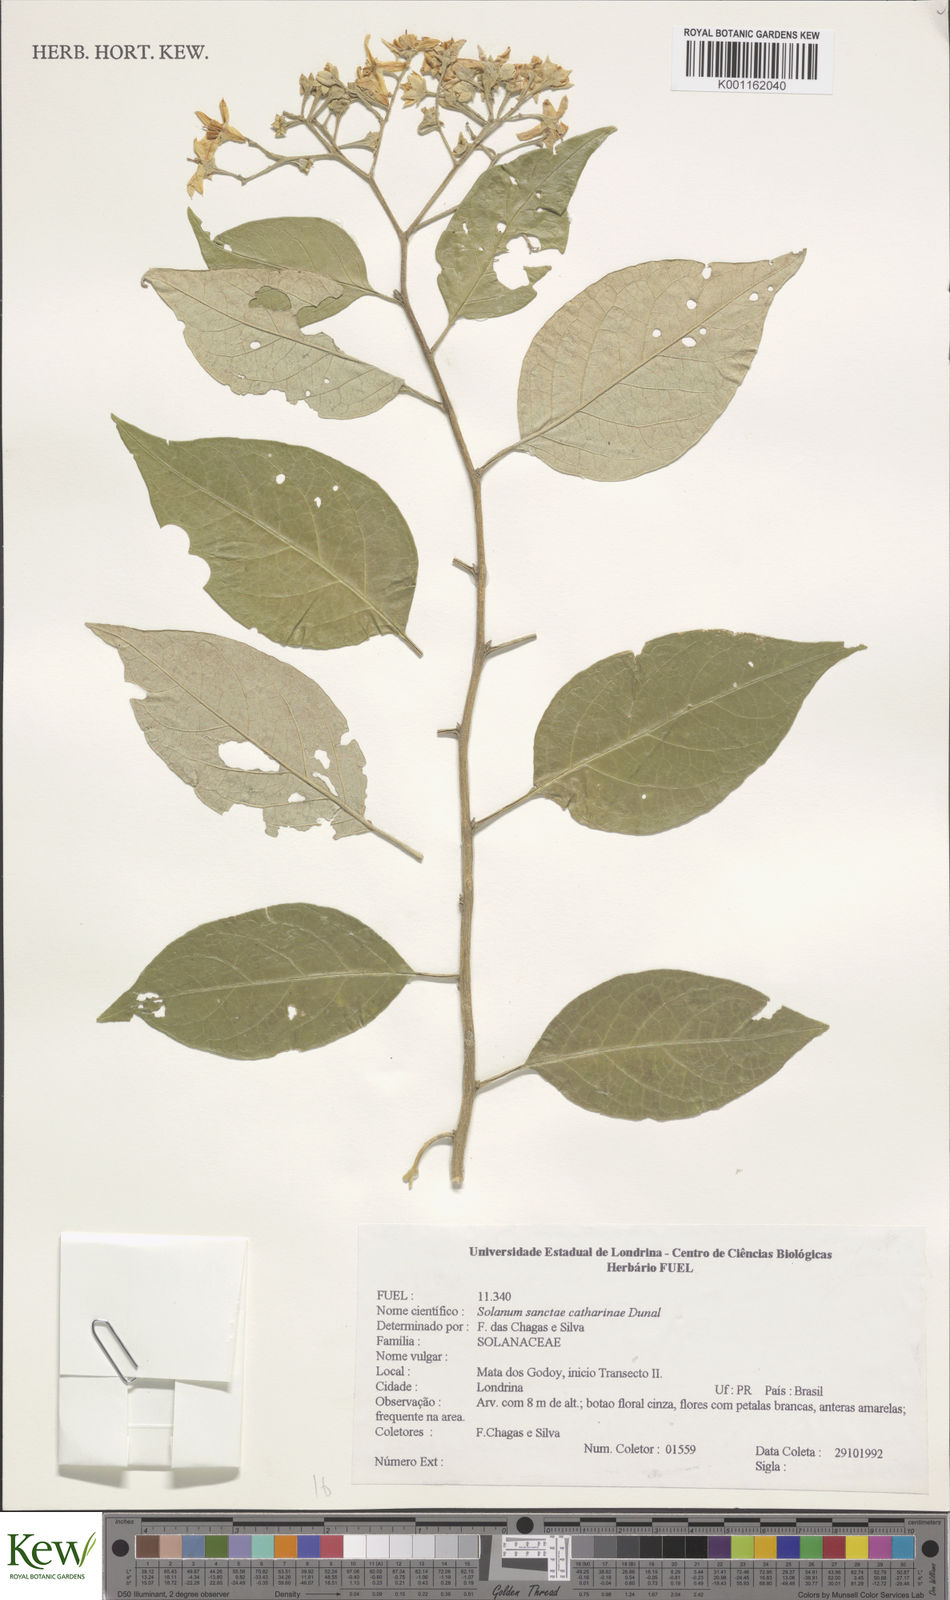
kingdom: Plantae
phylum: Tracheophyta
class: Magnoliopsida
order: Solanales
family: Solanaceae
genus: Solanum
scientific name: Solanum sanctae-catharinae
